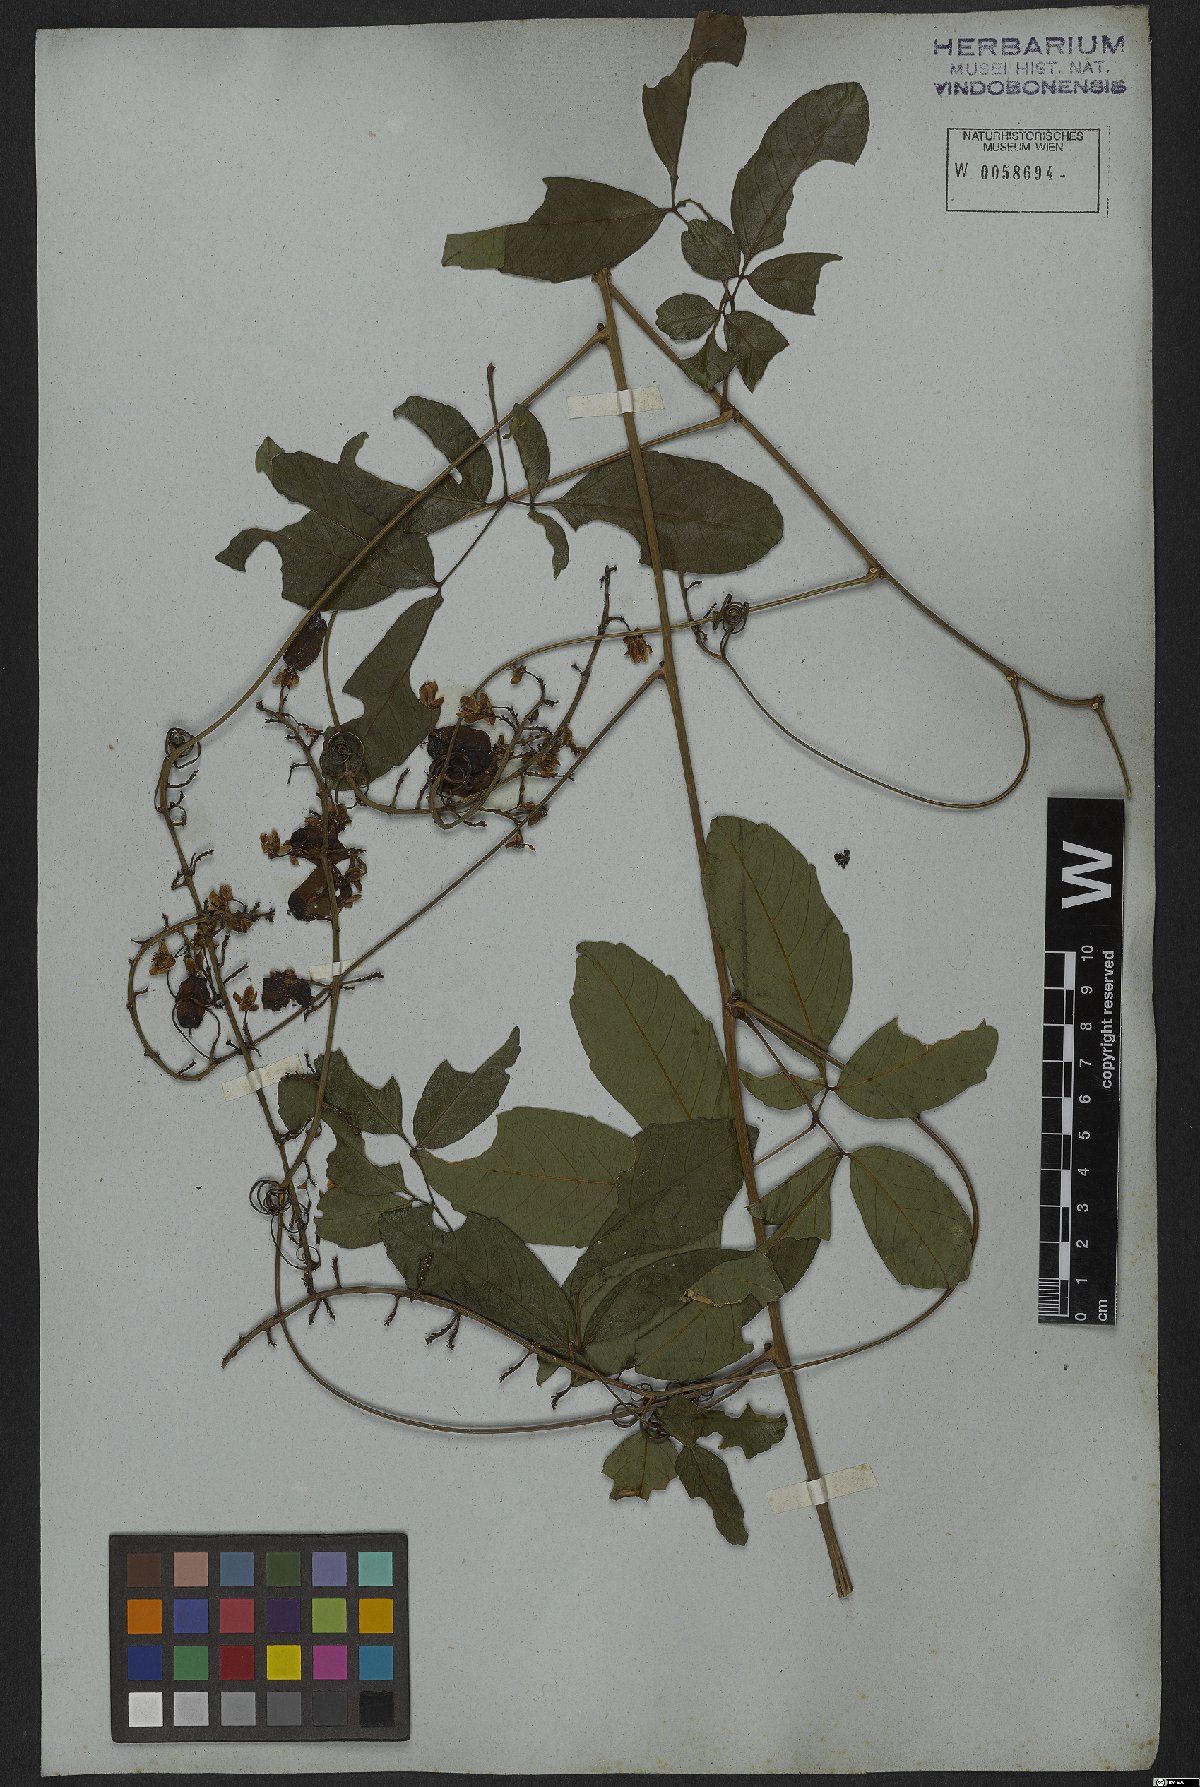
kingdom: Plantae
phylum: Tracheophyta
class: Magnoliopsida
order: Sapindales
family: Sapindaceae
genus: Serjania
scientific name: Serjania caracasana
